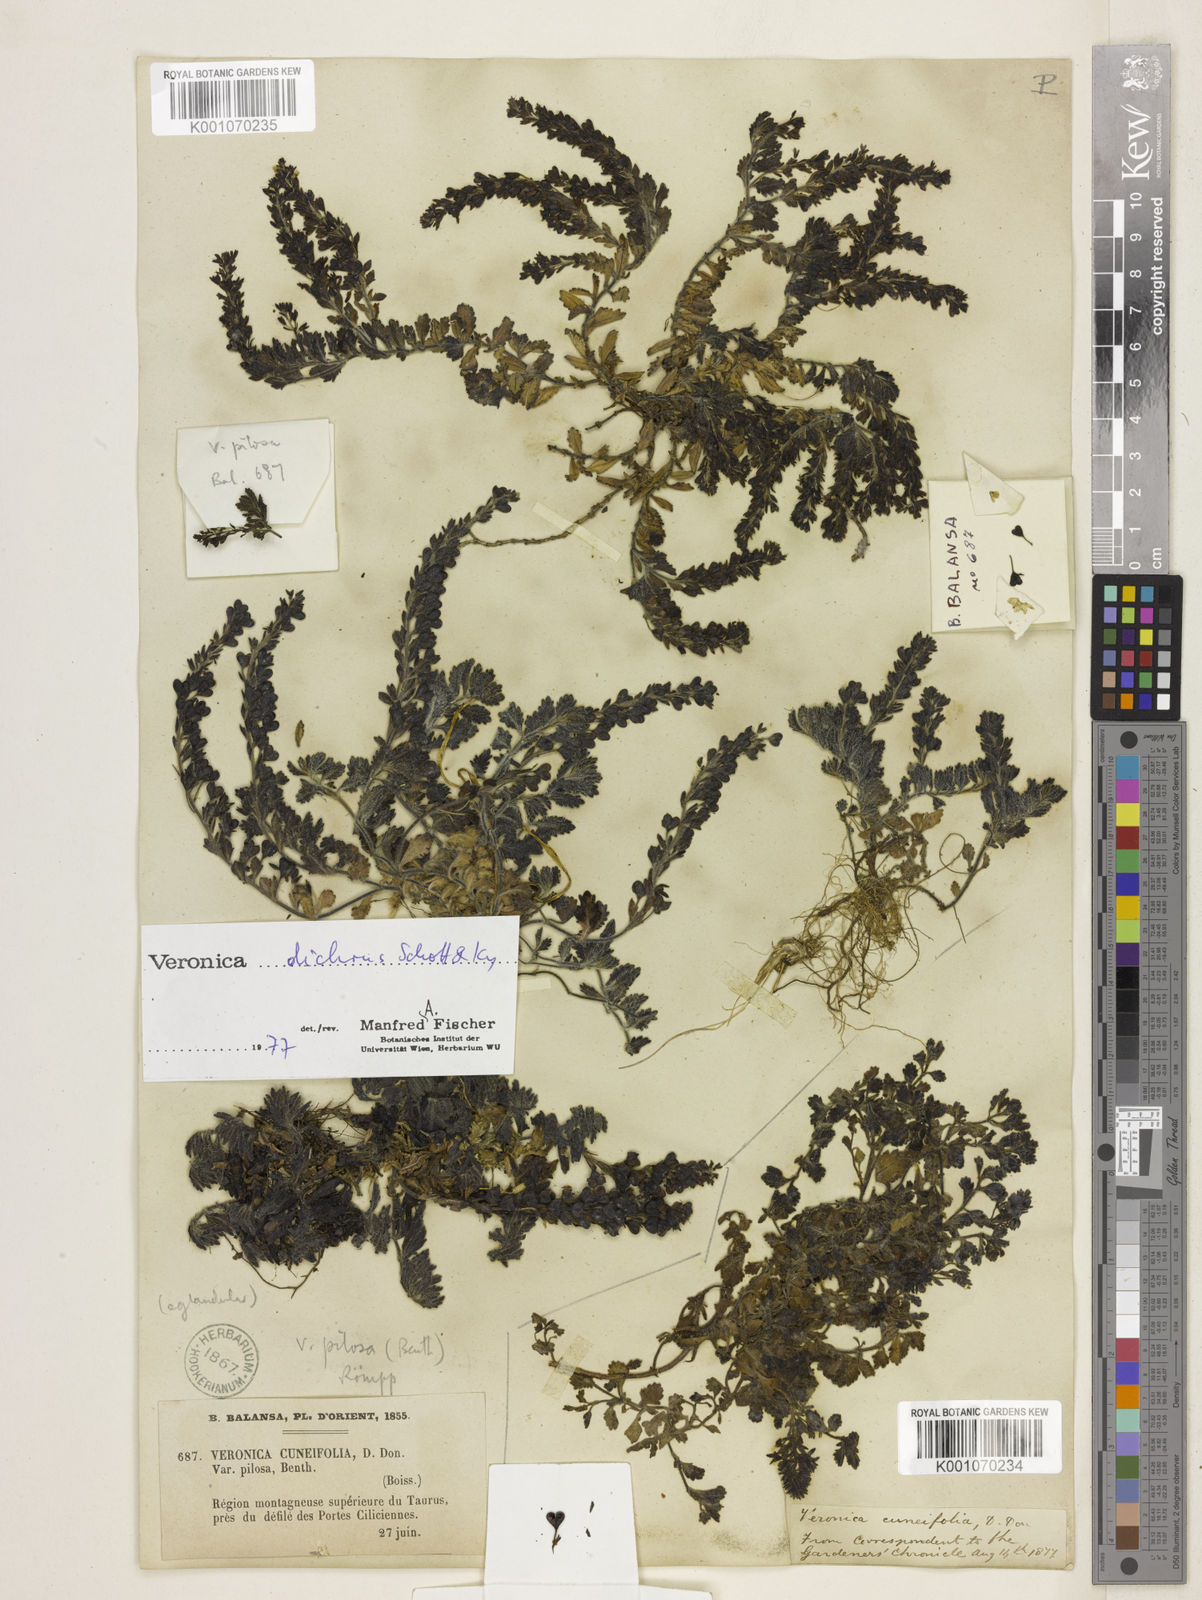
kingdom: Plantae
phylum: Tracheophyta
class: Magnoliopsida
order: Lamiales
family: Plantaginaceae
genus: Veronica
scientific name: Veronica
